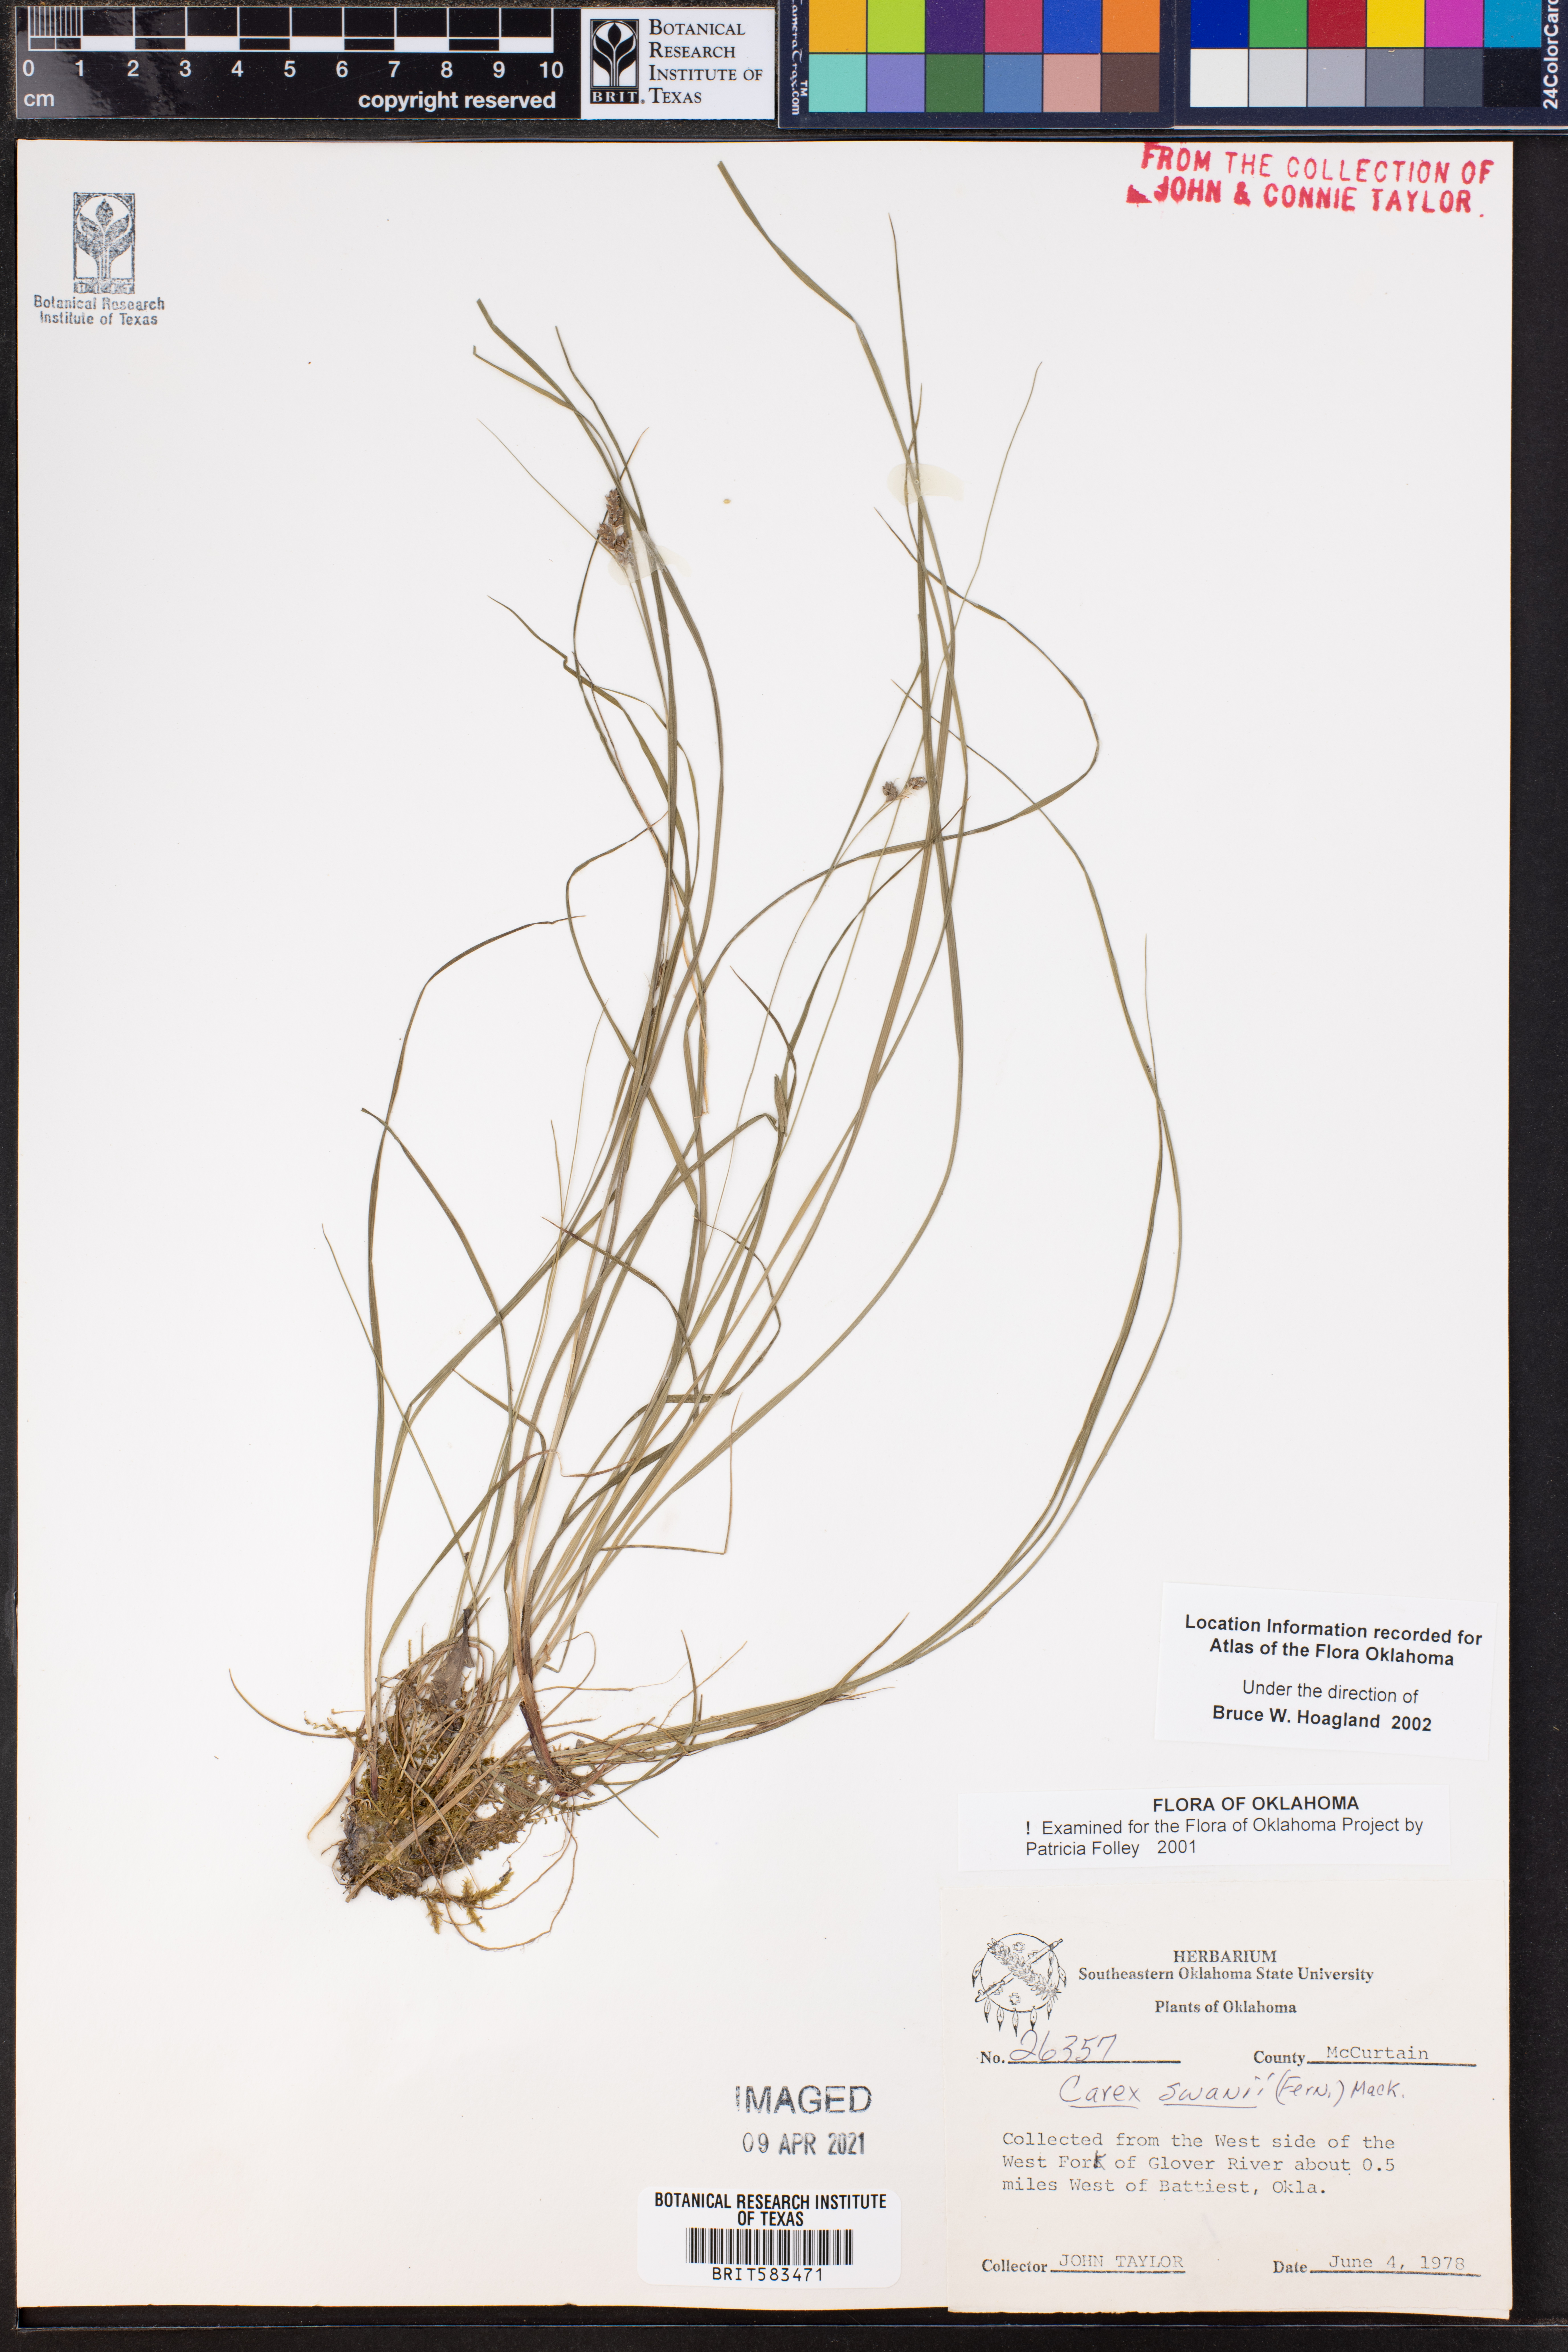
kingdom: Plantae
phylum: Tracheophyta
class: Liliopsida
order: Poales
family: Cyperaceae
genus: Carex
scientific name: Carex swanii
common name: Downy green sedge
